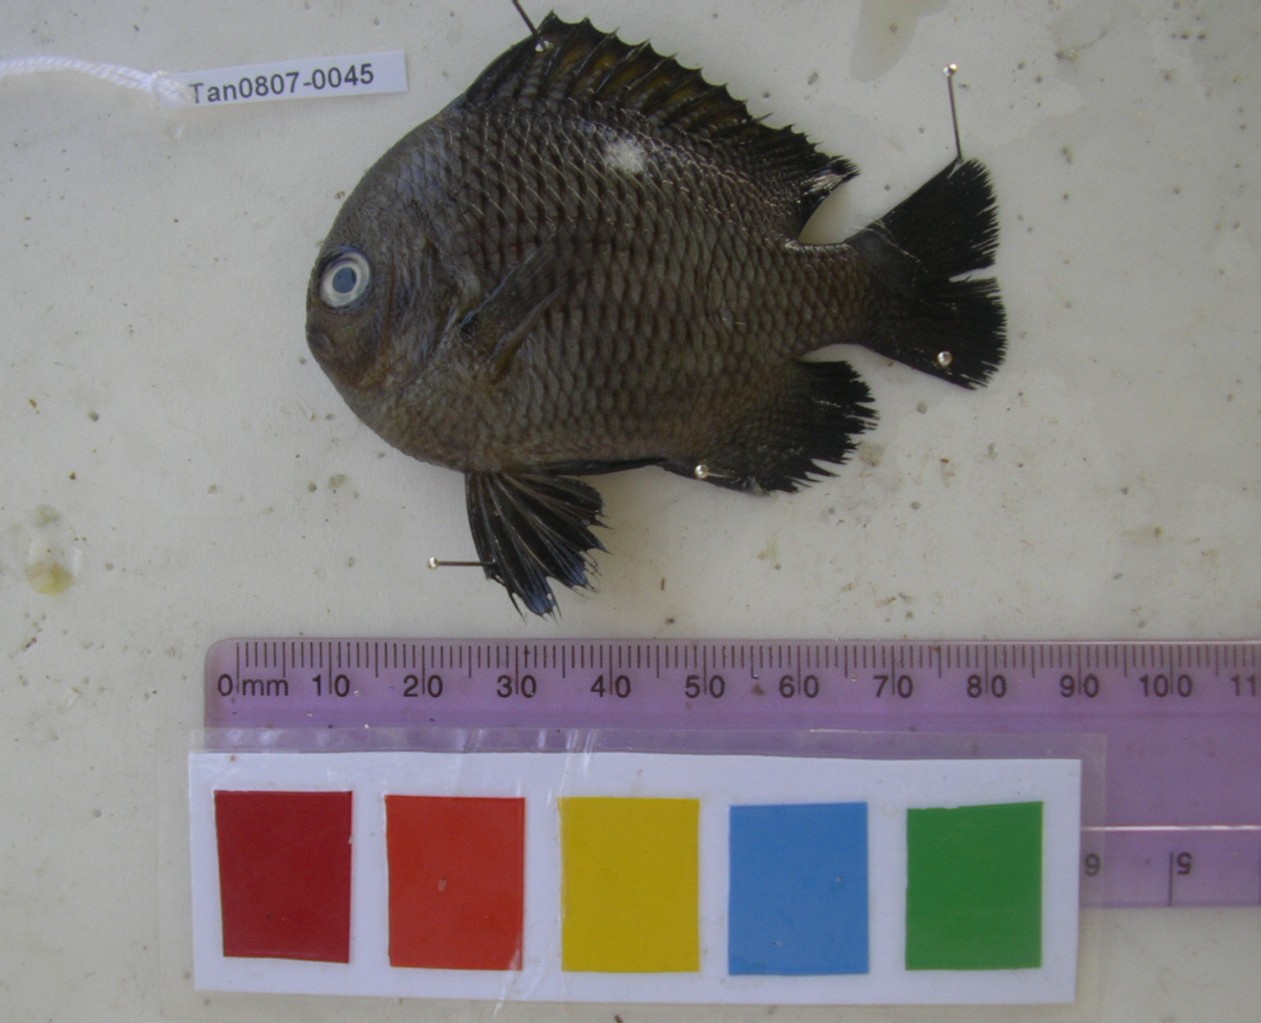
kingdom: Animalia
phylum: Chordata
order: Perciformes
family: Pomacentridae
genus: Dascyllus
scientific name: Dascyllus trimaculatus
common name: Threespot dascyllus
